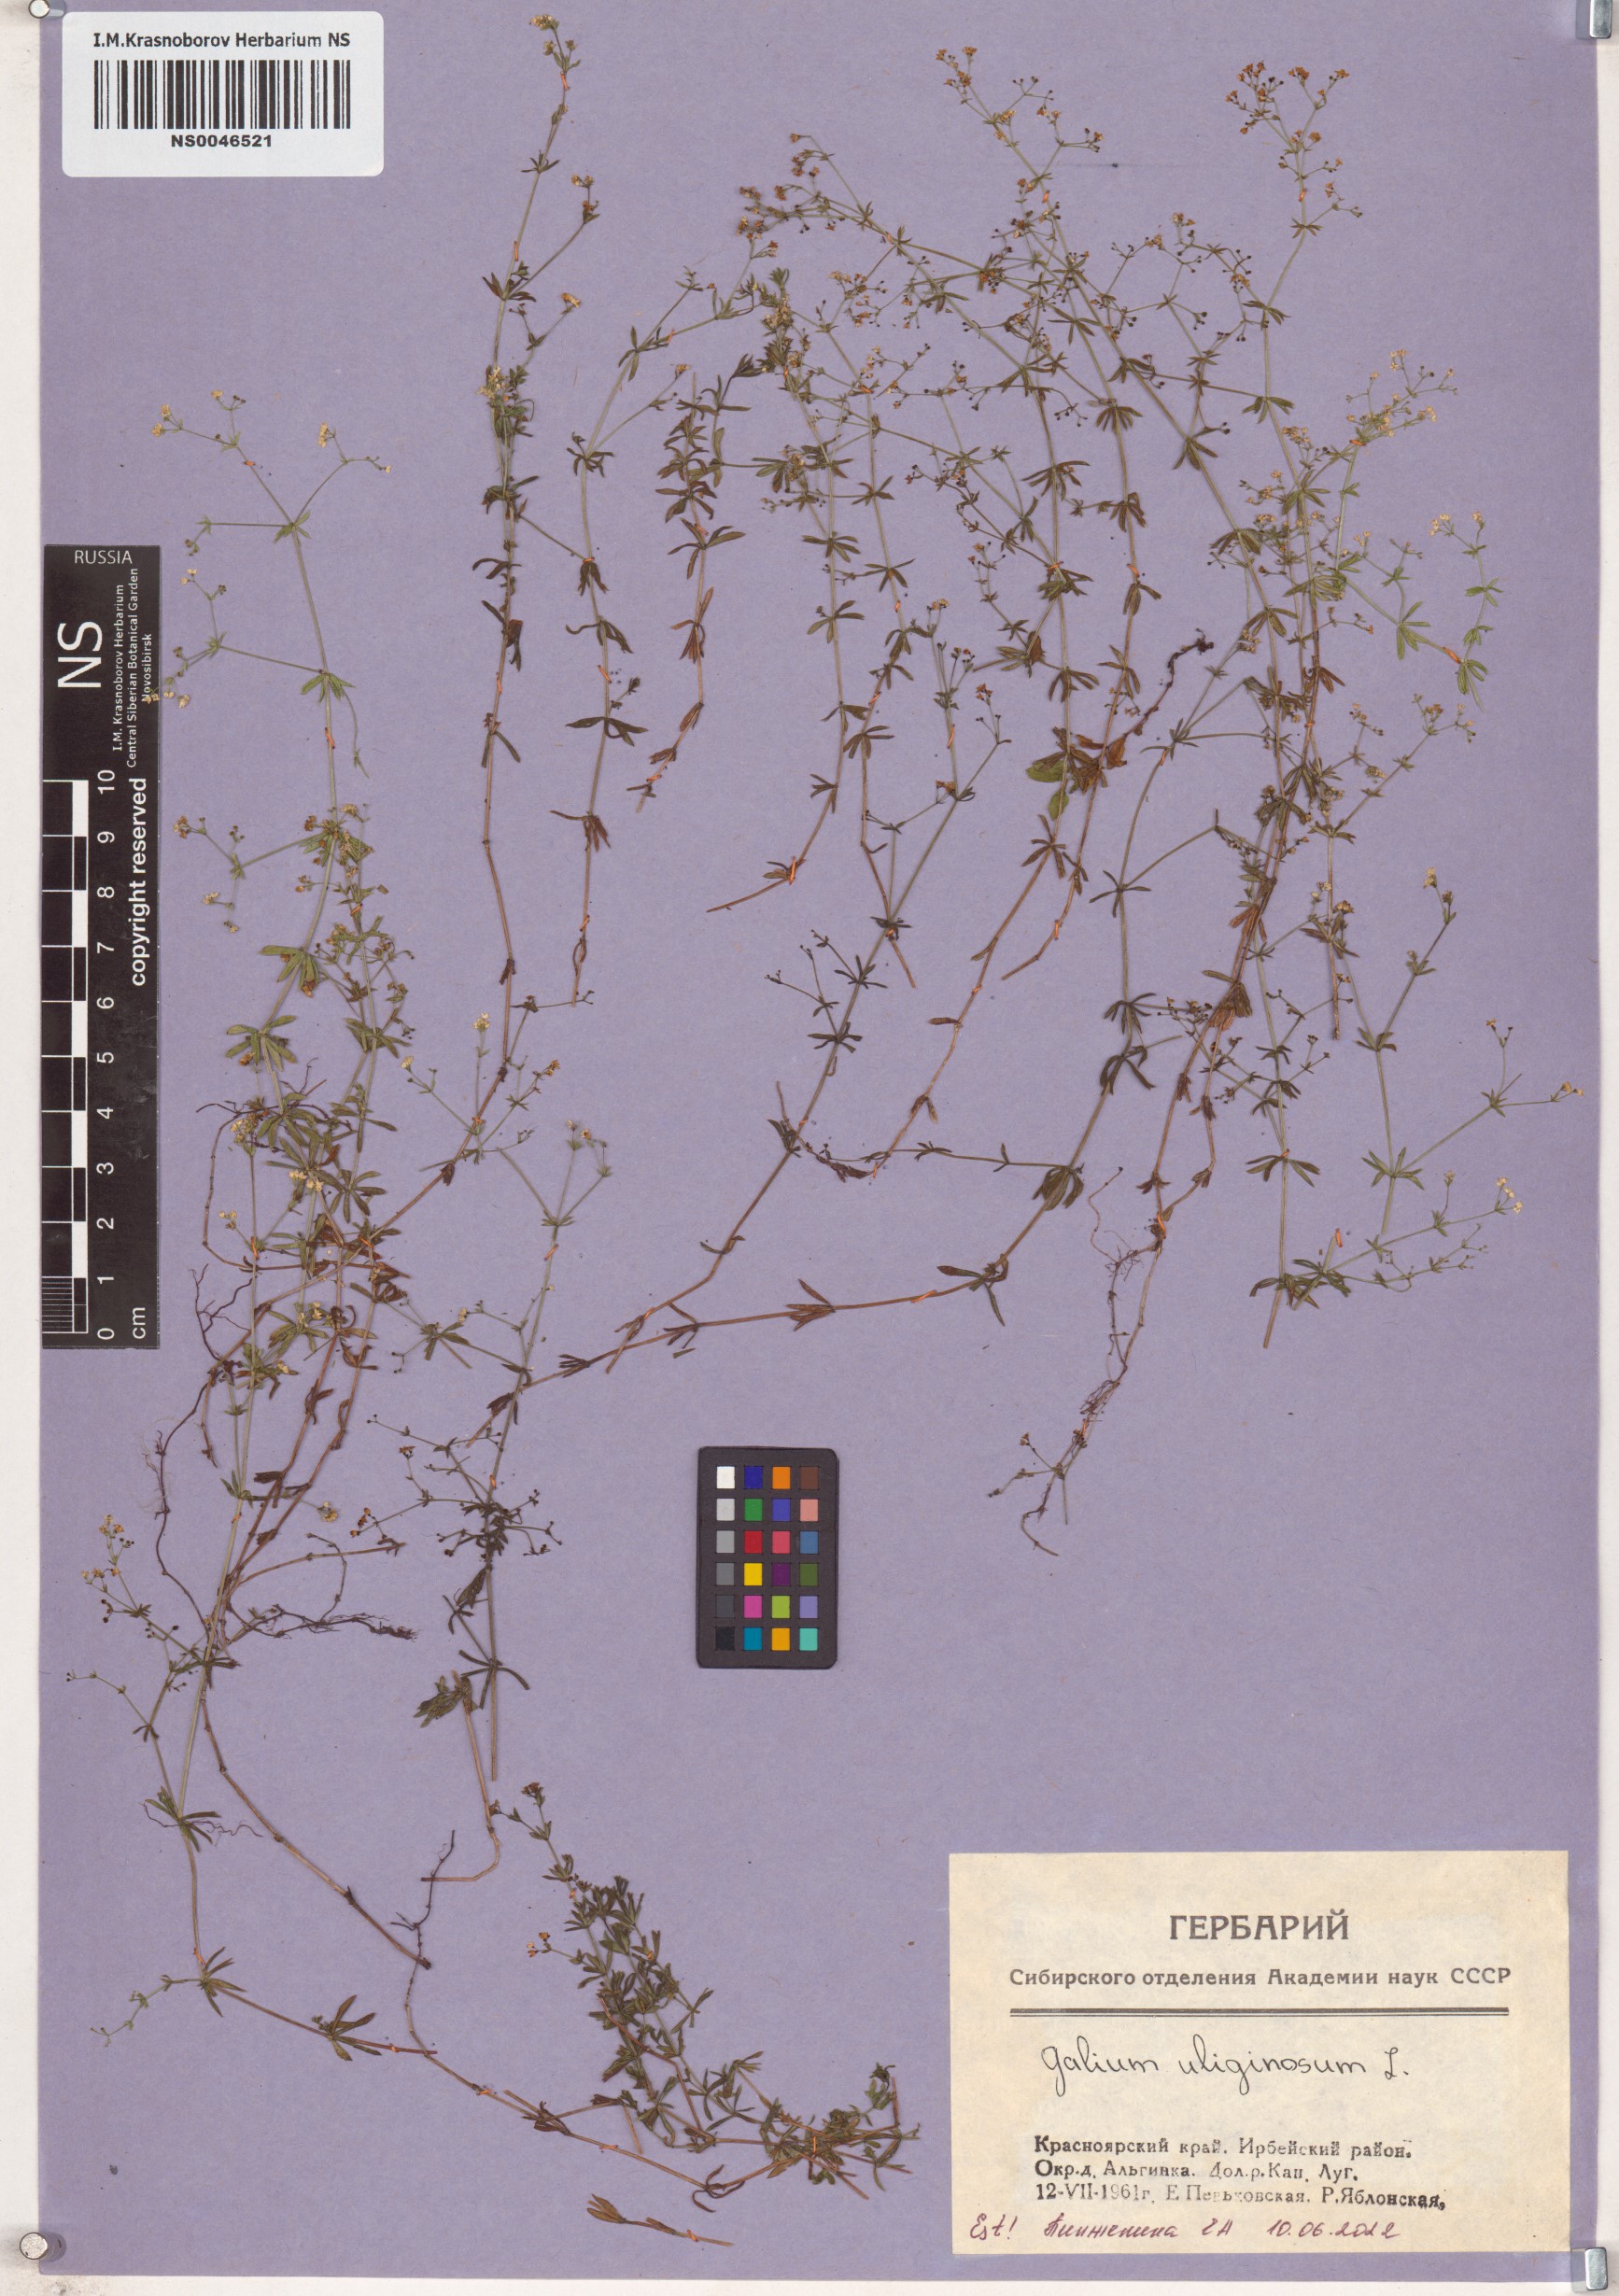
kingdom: Plantae
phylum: Tracheophyta
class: Magnoliopsida
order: Gentianales
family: Rubiaceae
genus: Galium
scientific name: Galium uliginosum
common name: Fen bedstraw
